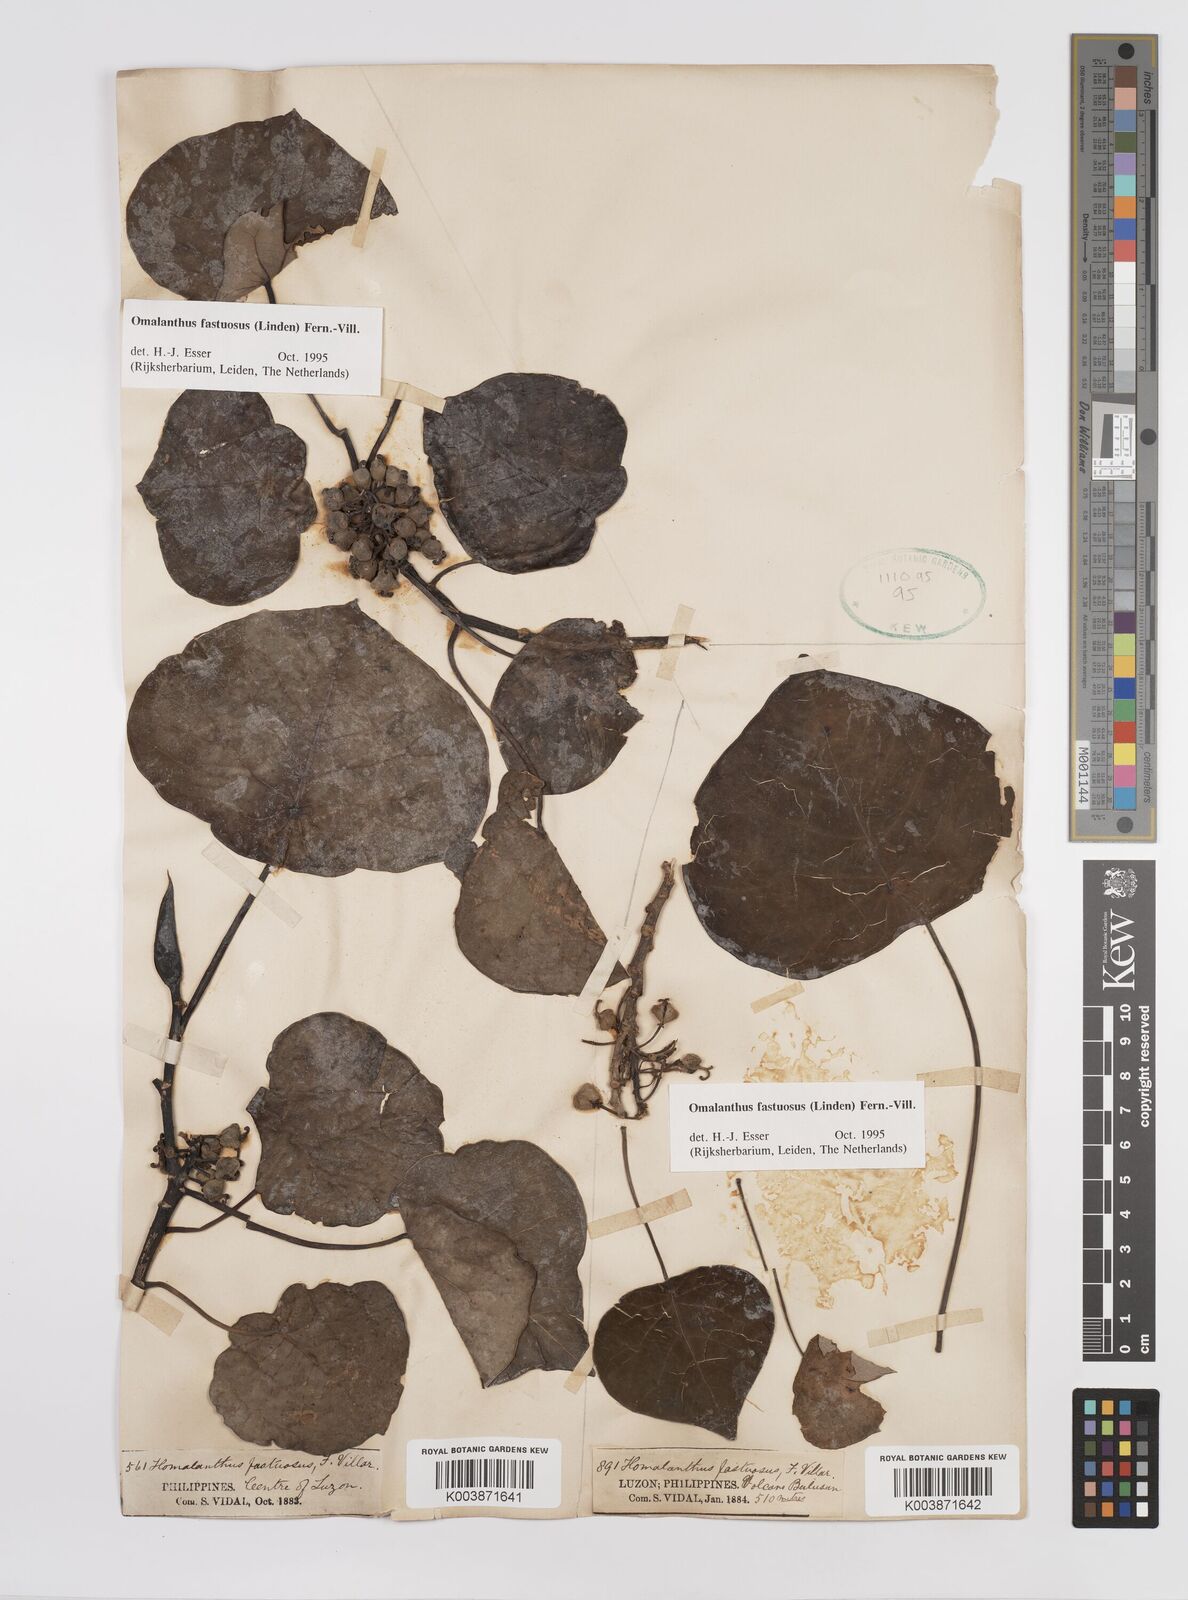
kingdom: Plantae
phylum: Tracheophyta
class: Magnoliopsida
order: Malpighiales
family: Euphorbiaceae
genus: Homalanthus
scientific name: Homalanthus fastuosus
